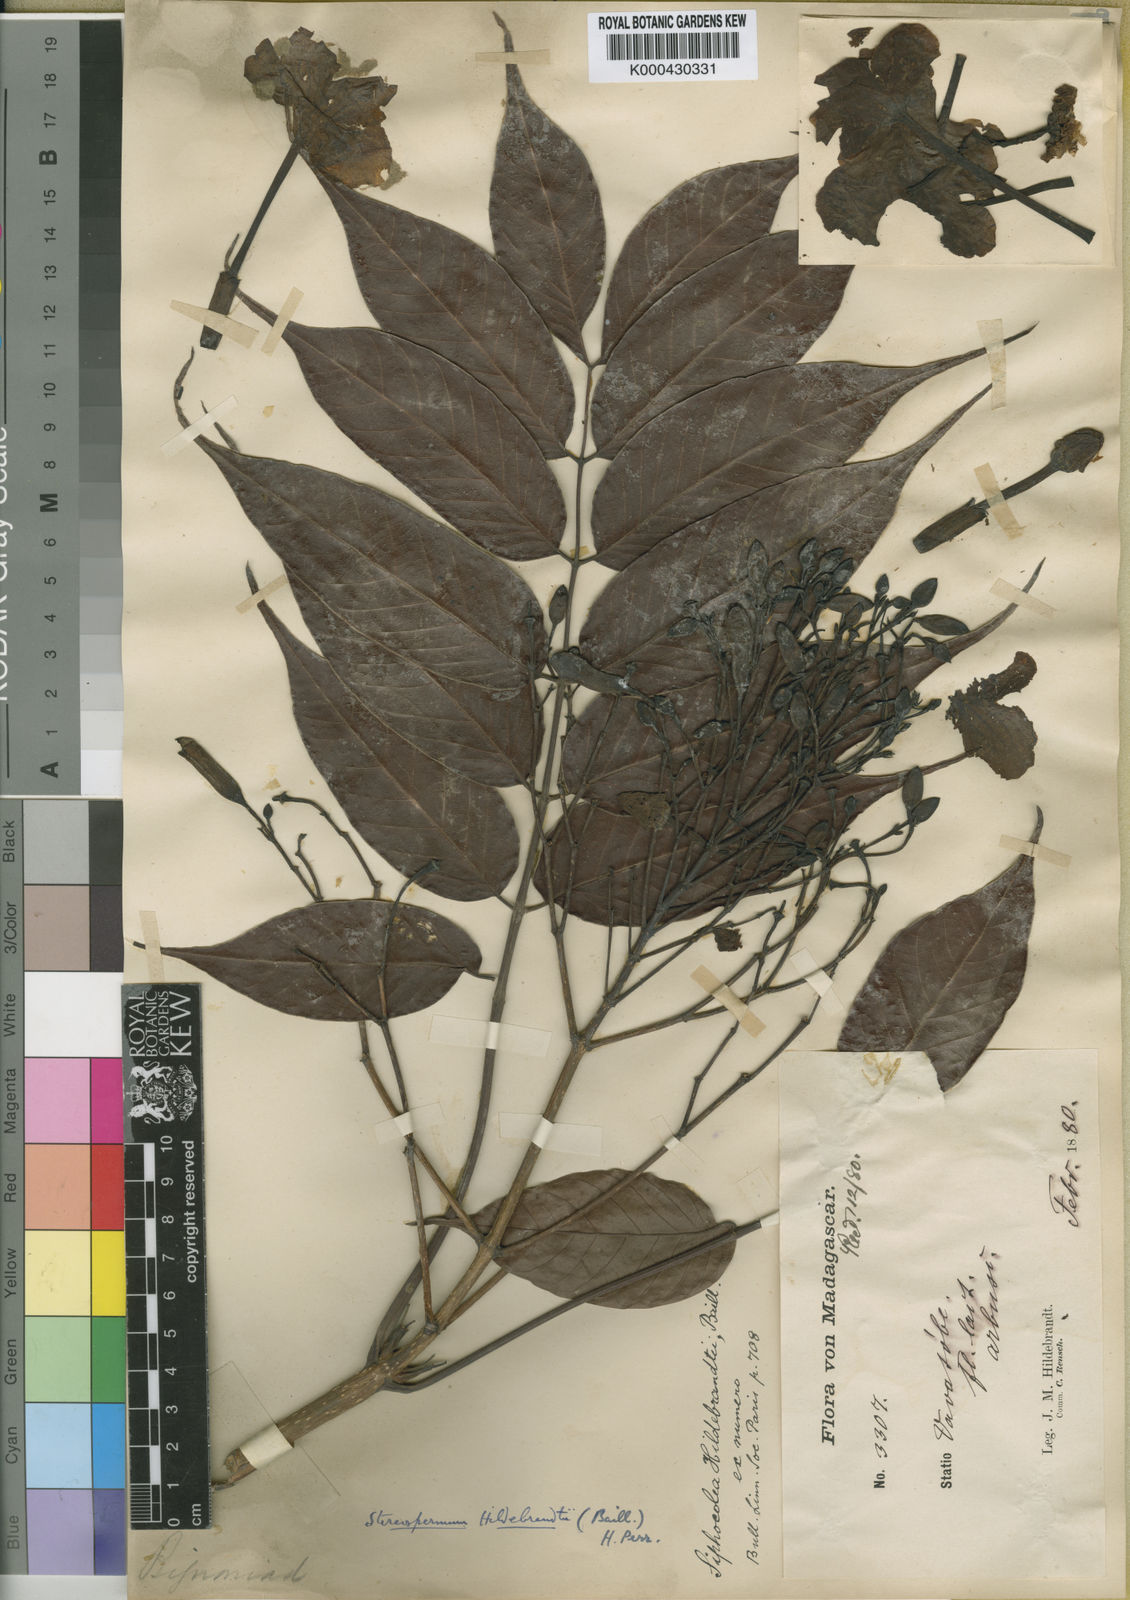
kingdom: Plantae
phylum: Tracheophyta
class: Magnoliopsida
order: Lamiales
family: Bignoniaceae
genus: Stereospermum
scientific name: Stereospermum hildebrandtii
